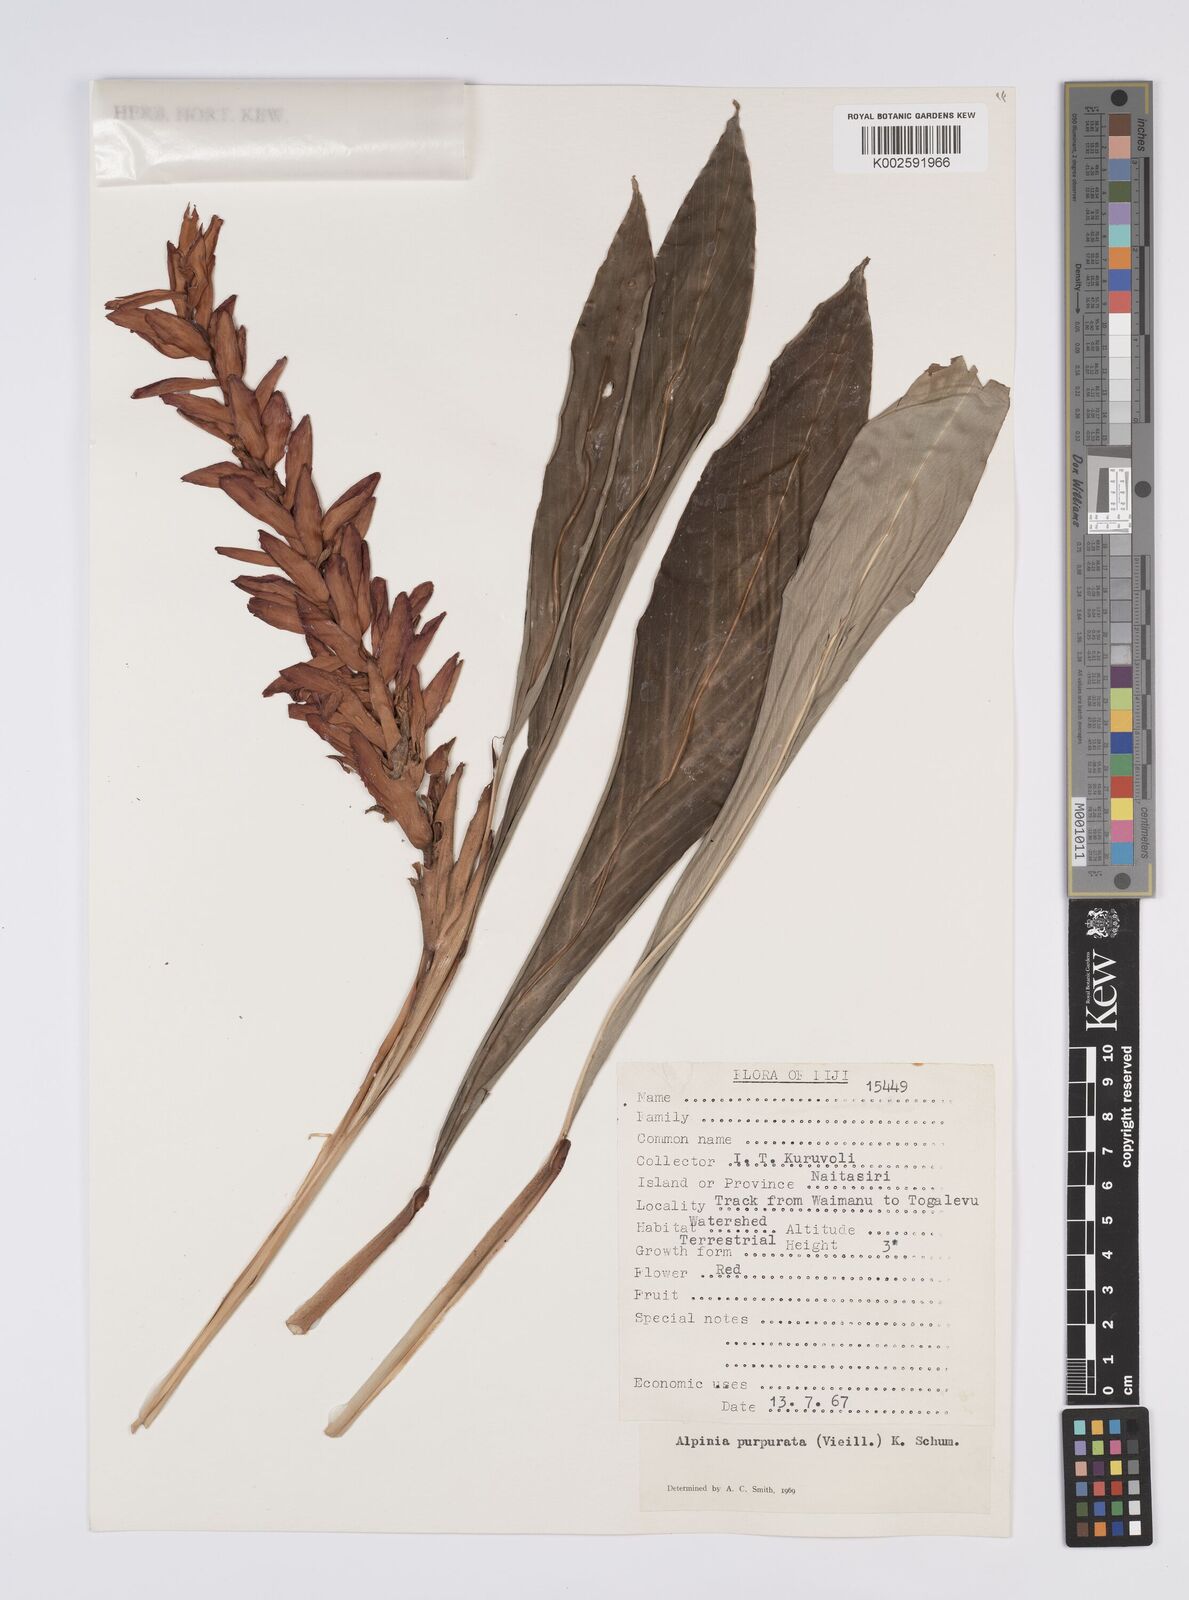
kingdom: Plantae
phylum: Tracheophyta
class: Liliopsida
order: Zingiberales
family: Zingiberaceae
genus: Alpinia
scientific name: Alpinia purpurata
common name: Red ginger
